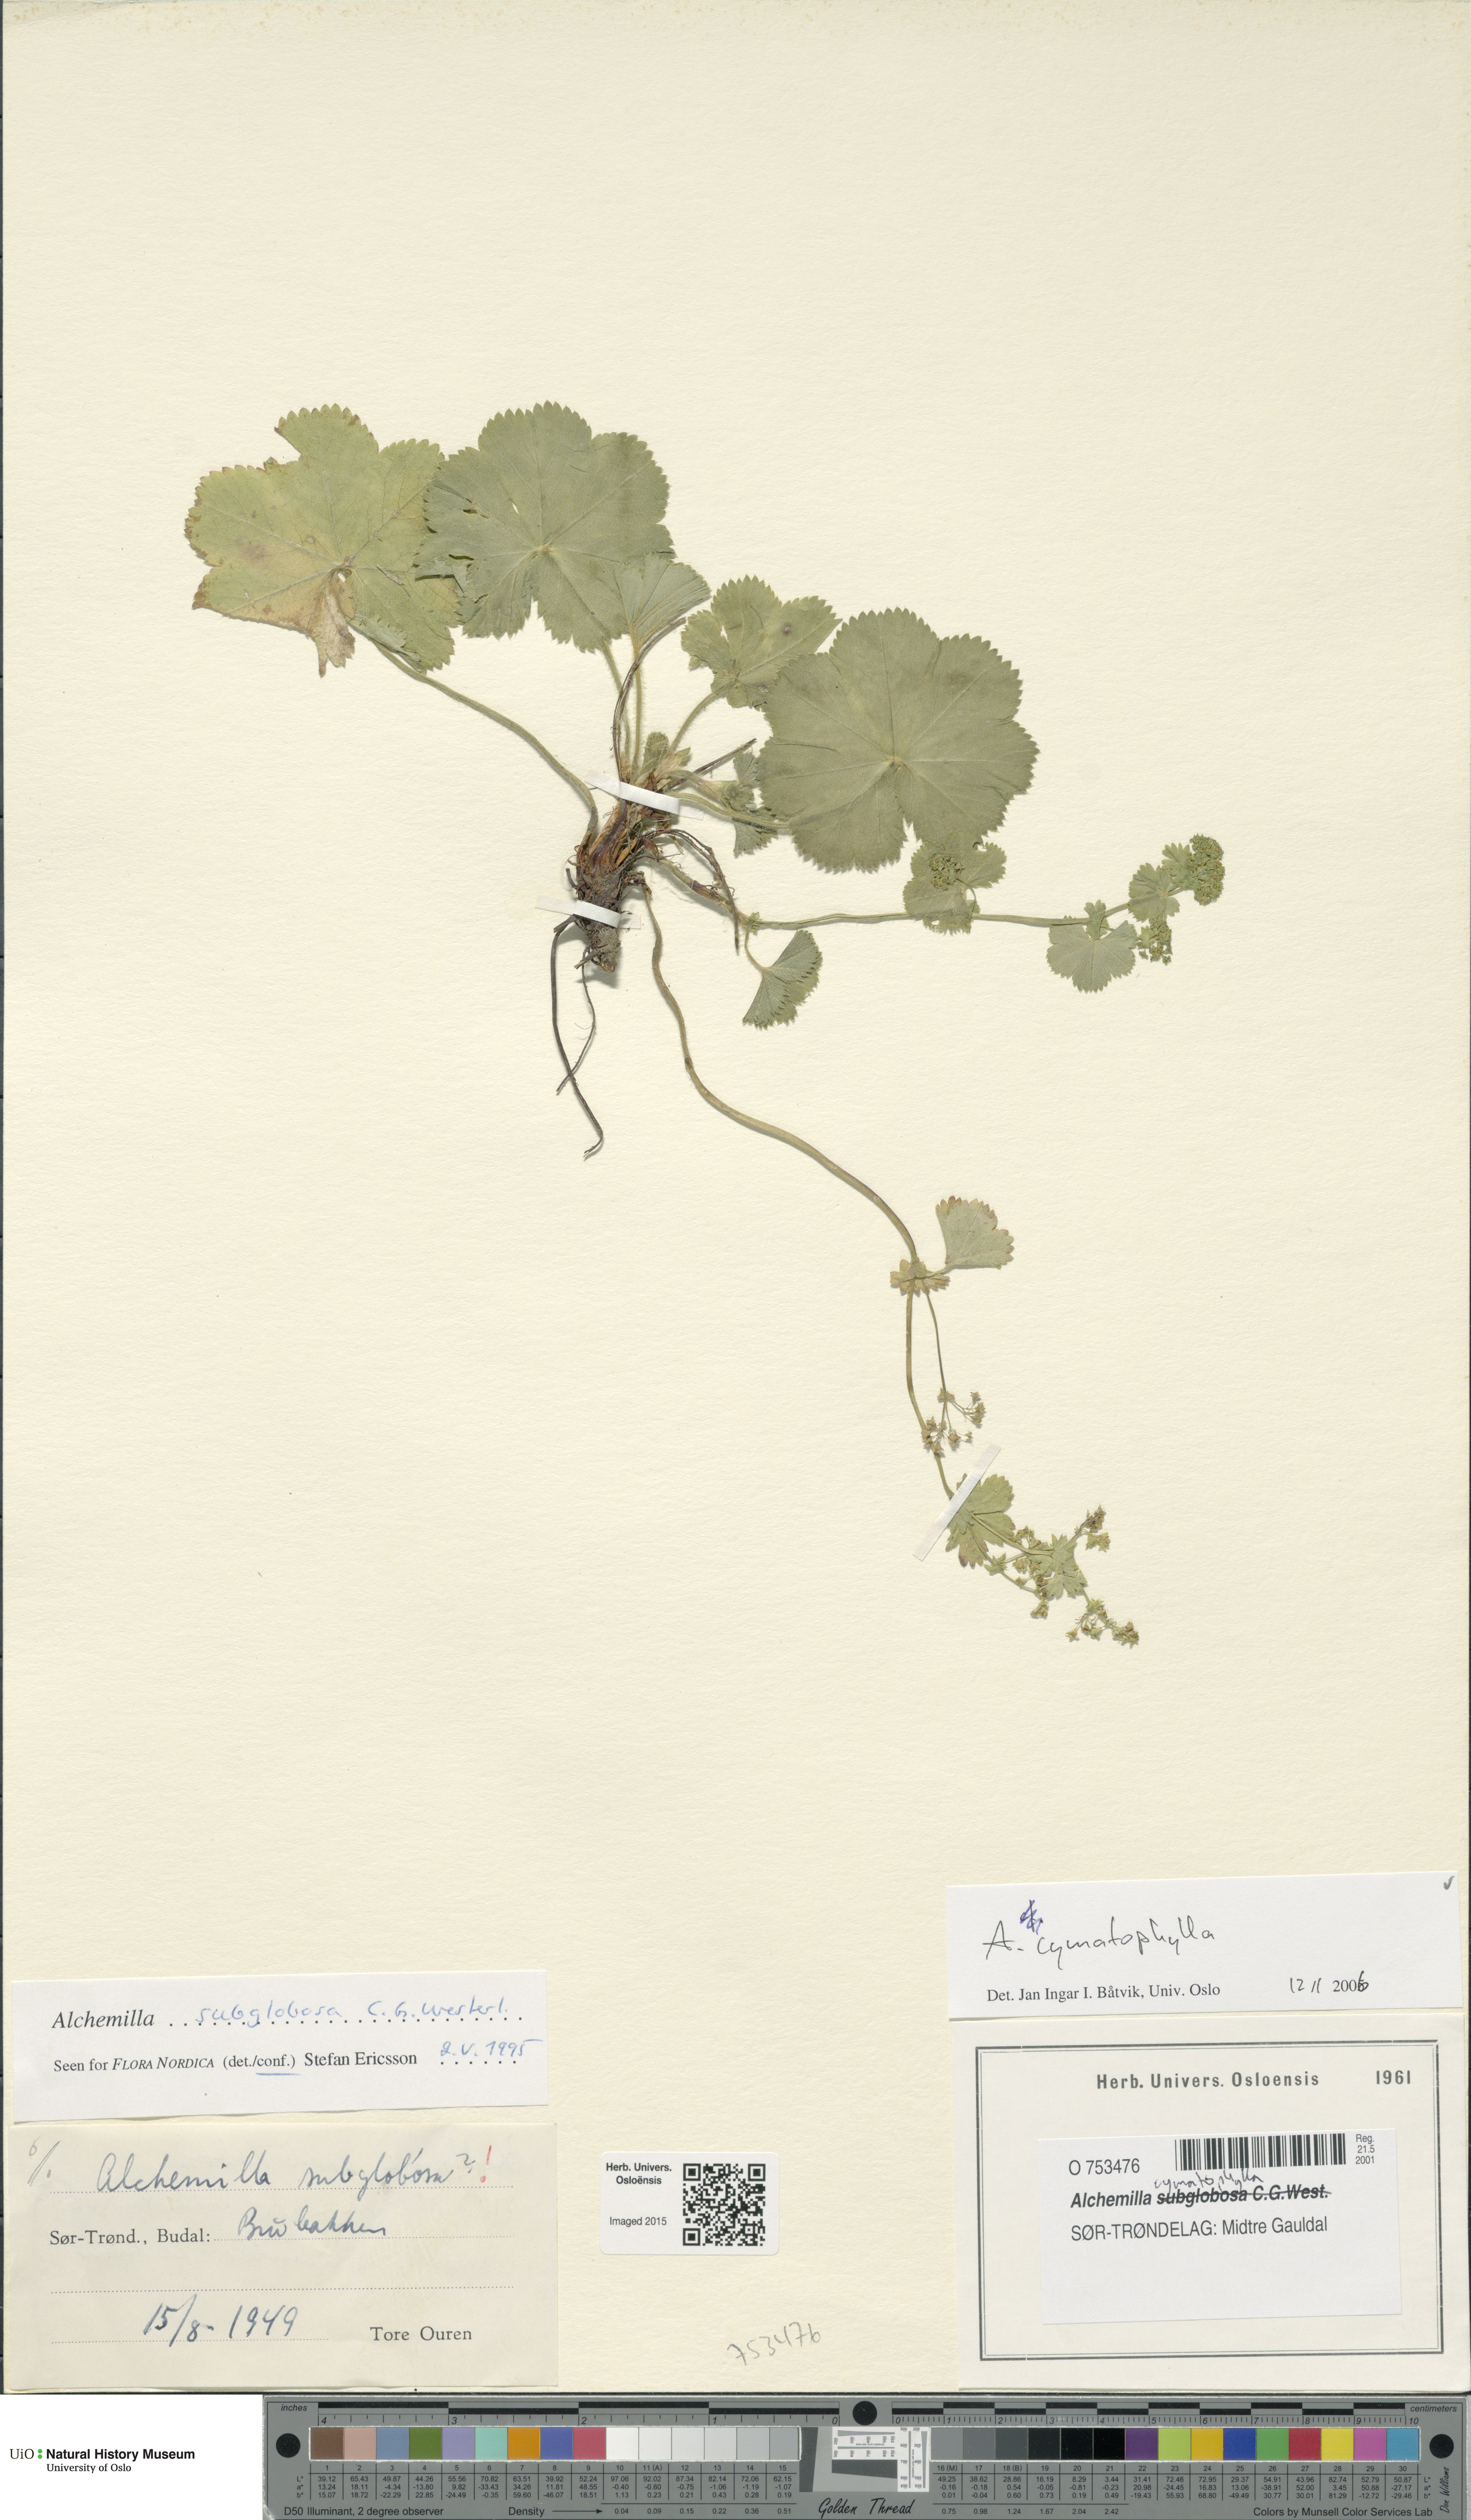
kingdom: Plantae
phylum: Tracheophyta
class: Magnoliopsida
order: Rosales
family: Rosaceae
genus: Alchemilla
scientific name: Alchemilla cymatophylla
